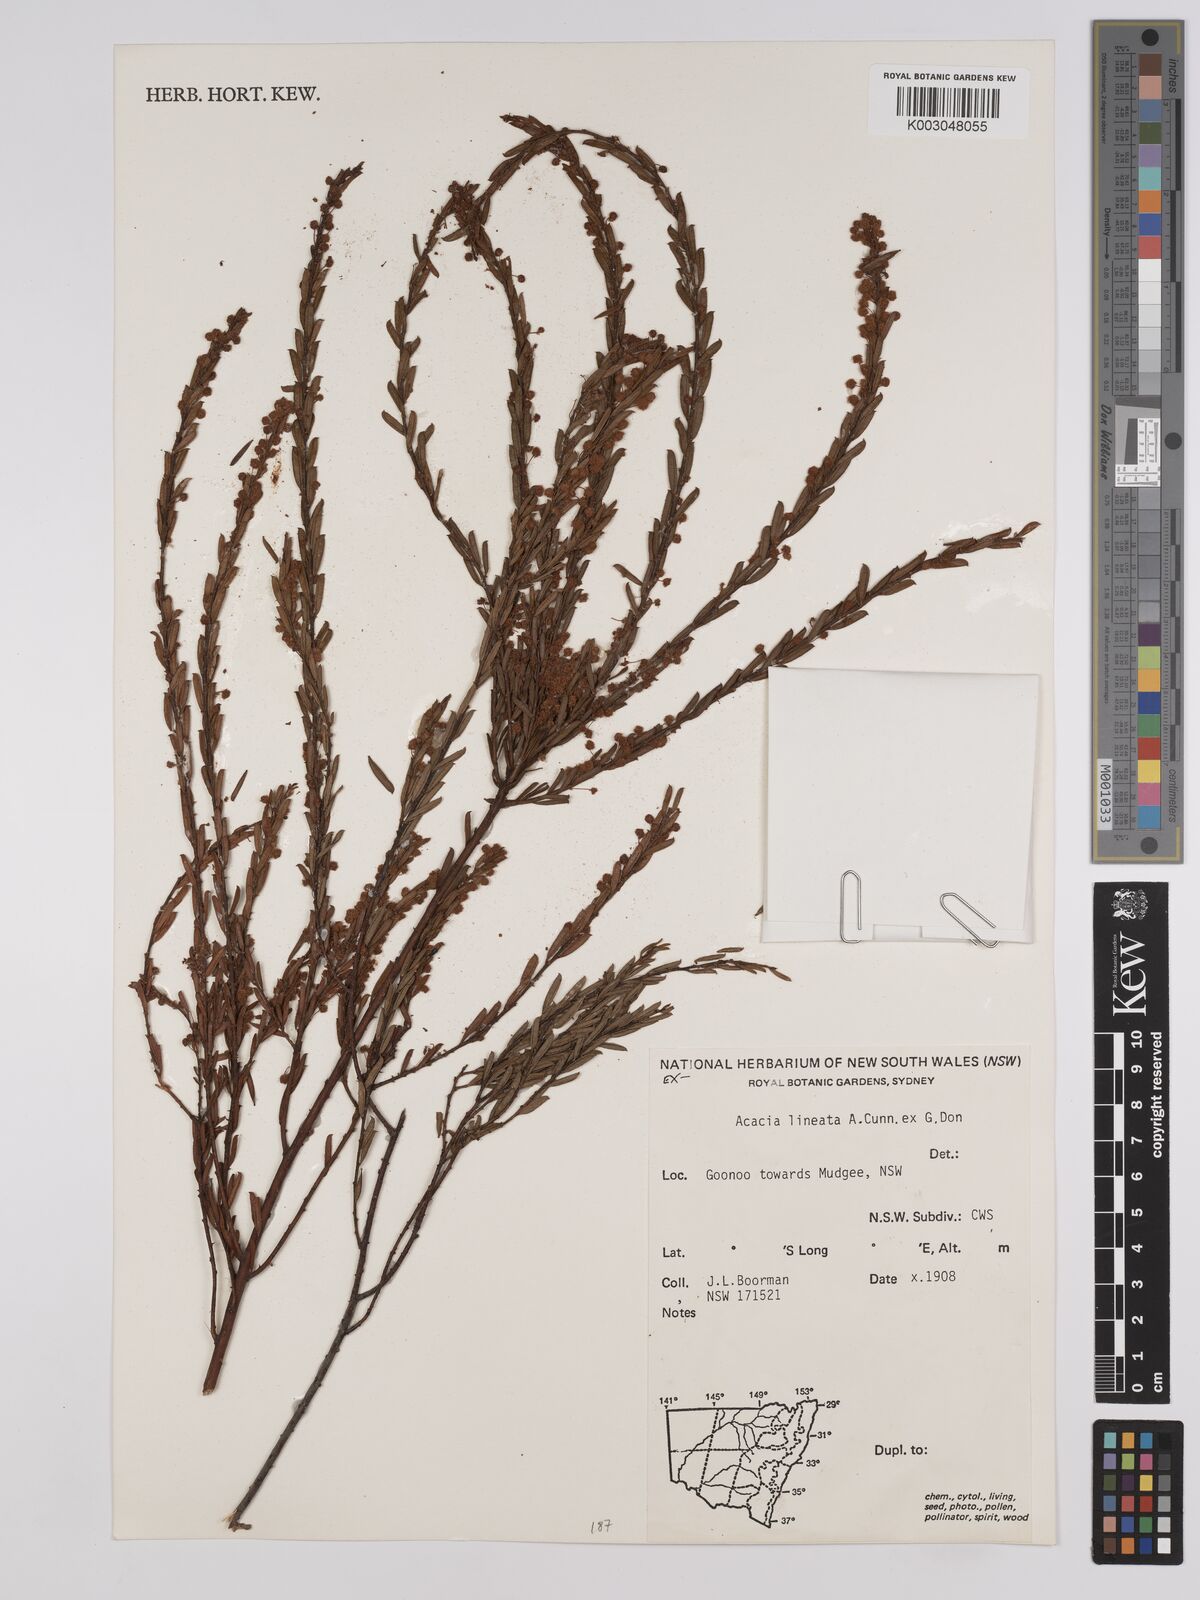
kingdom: Plantae
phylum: Tracheophyta
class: Magnoliopsida
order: Fabales
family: Fabaceae
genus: Acacia
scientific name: Acacia lineata
